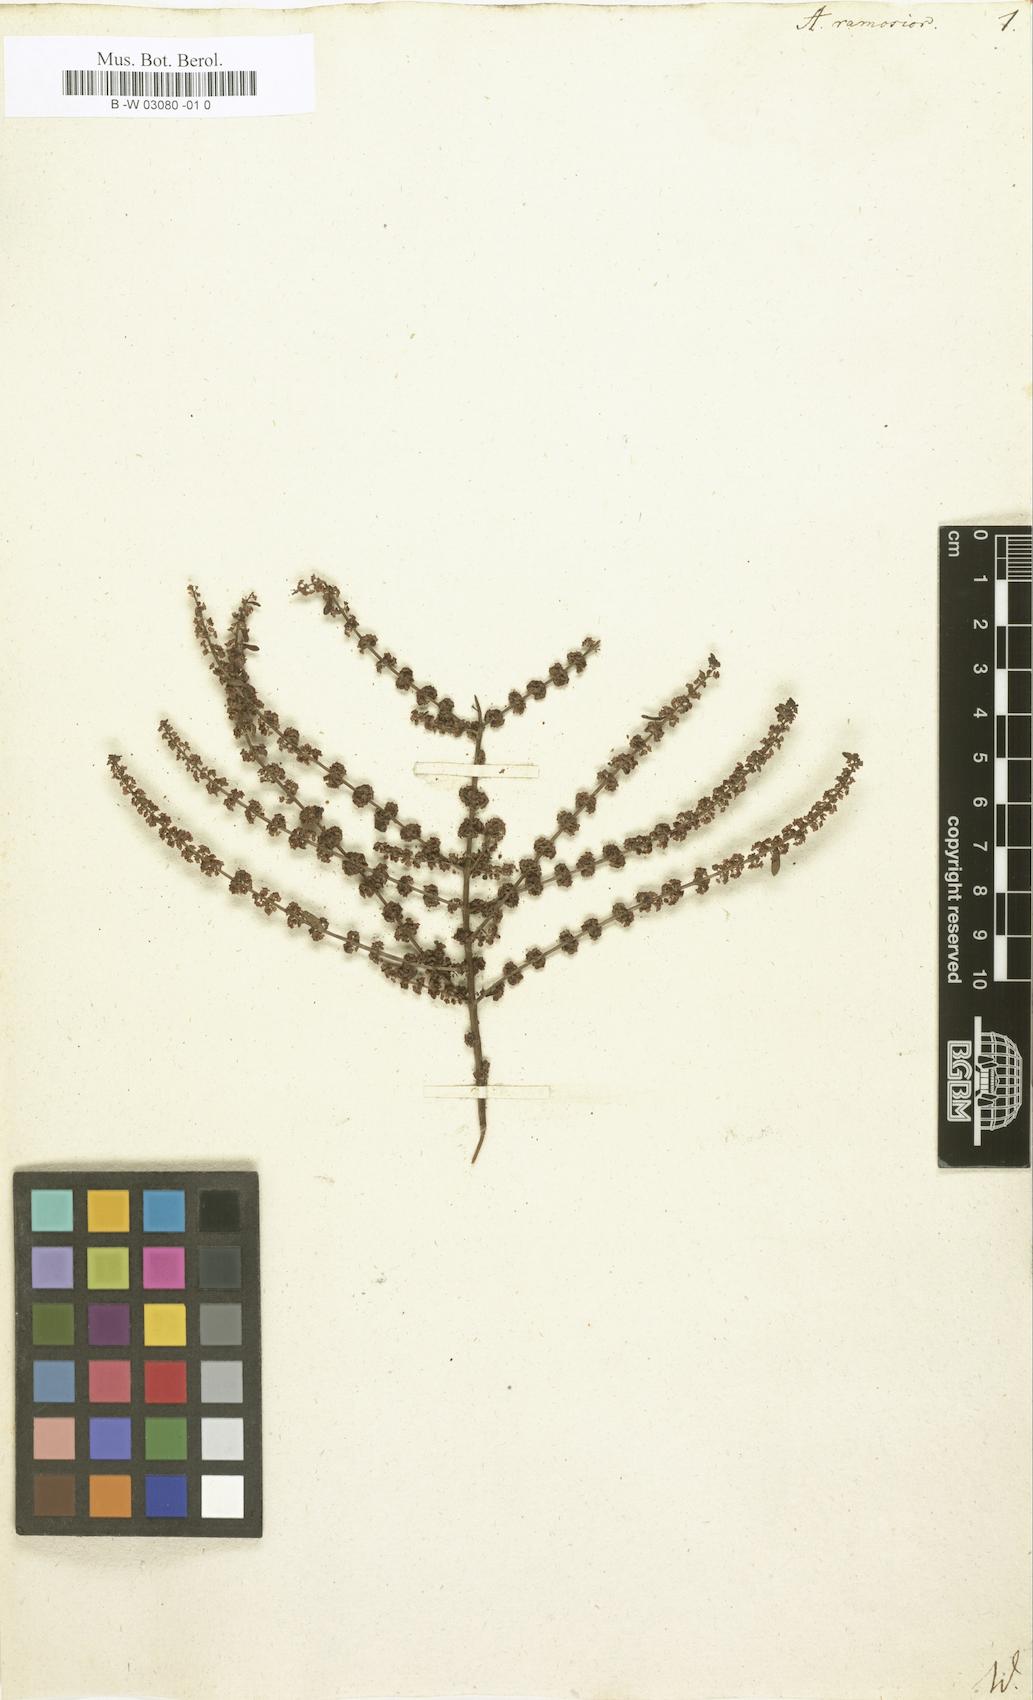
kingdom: Plantae
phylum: Tracheophyta
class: Magnoliopsida
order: Myrtales
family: Lythraceae
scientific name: Lythraceae
